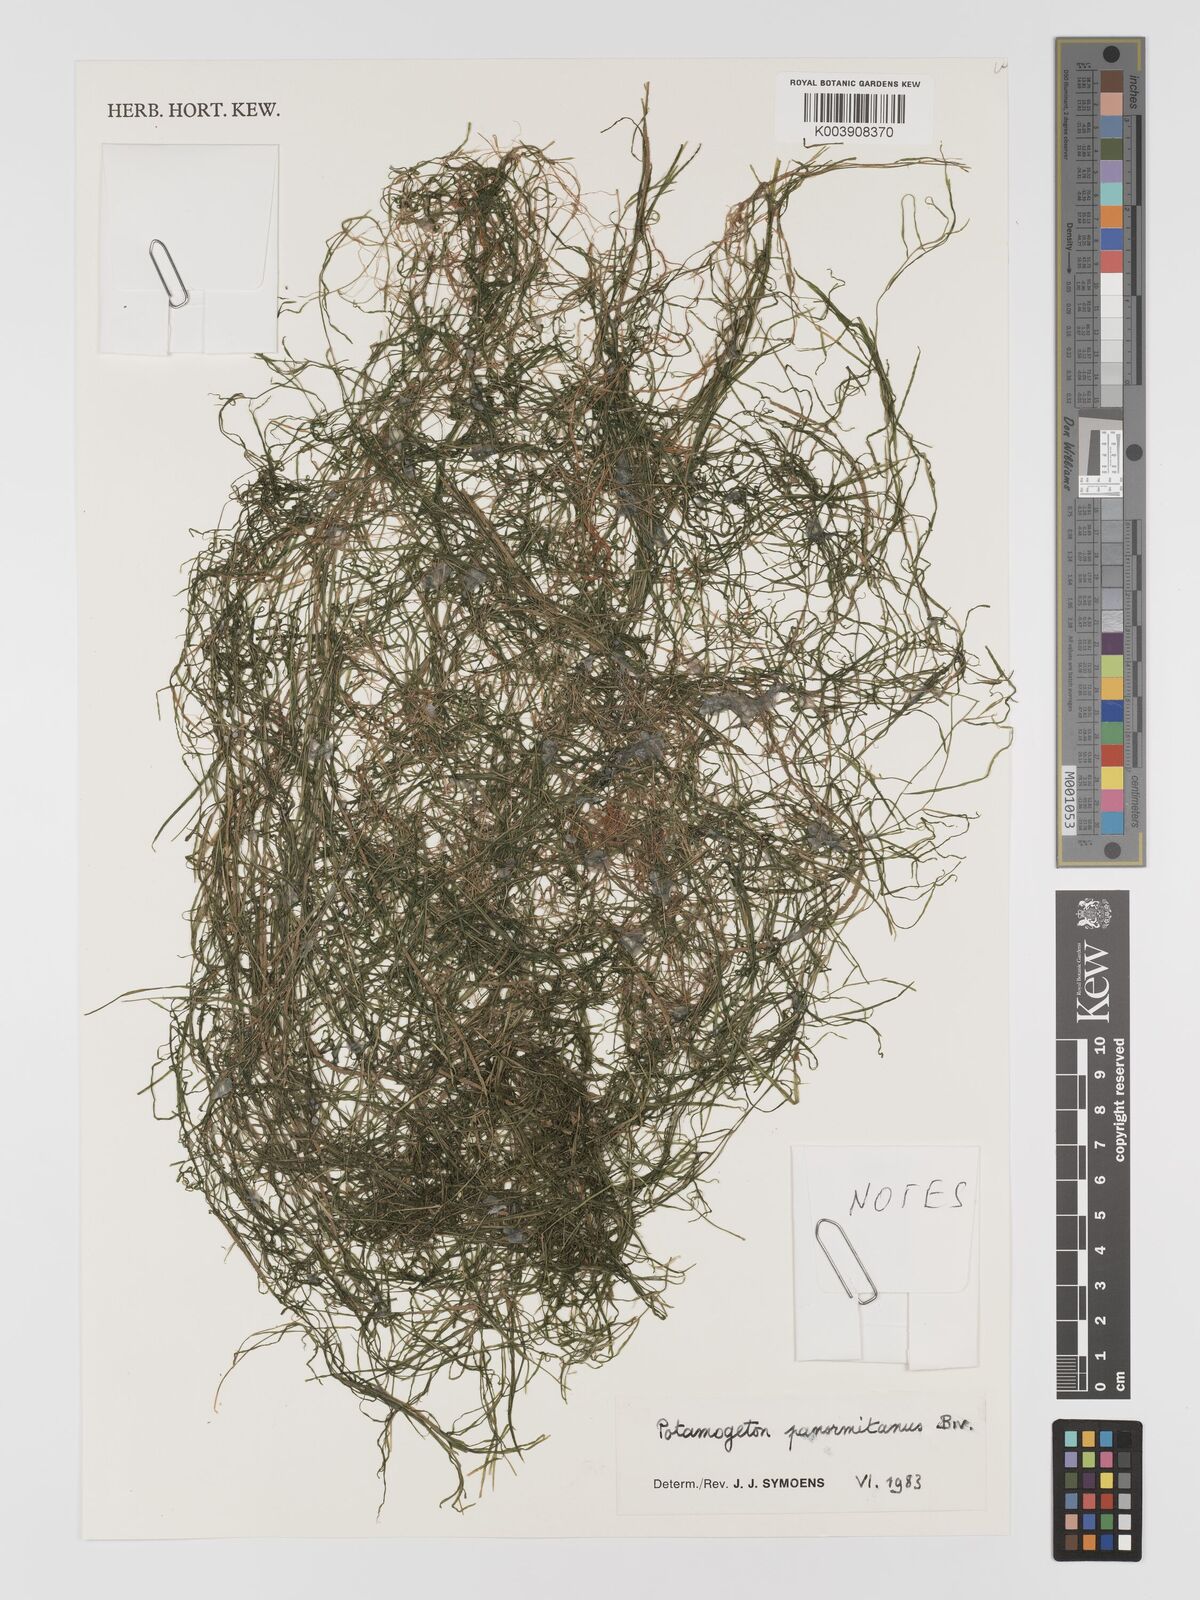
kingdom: Plantae
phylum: Tracheophyta
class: Liliopsida
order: Alismatales
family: Potamogetonaceae
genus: Potamogeton
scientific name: Potamogeton pusillus
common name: Lesser pondweed
